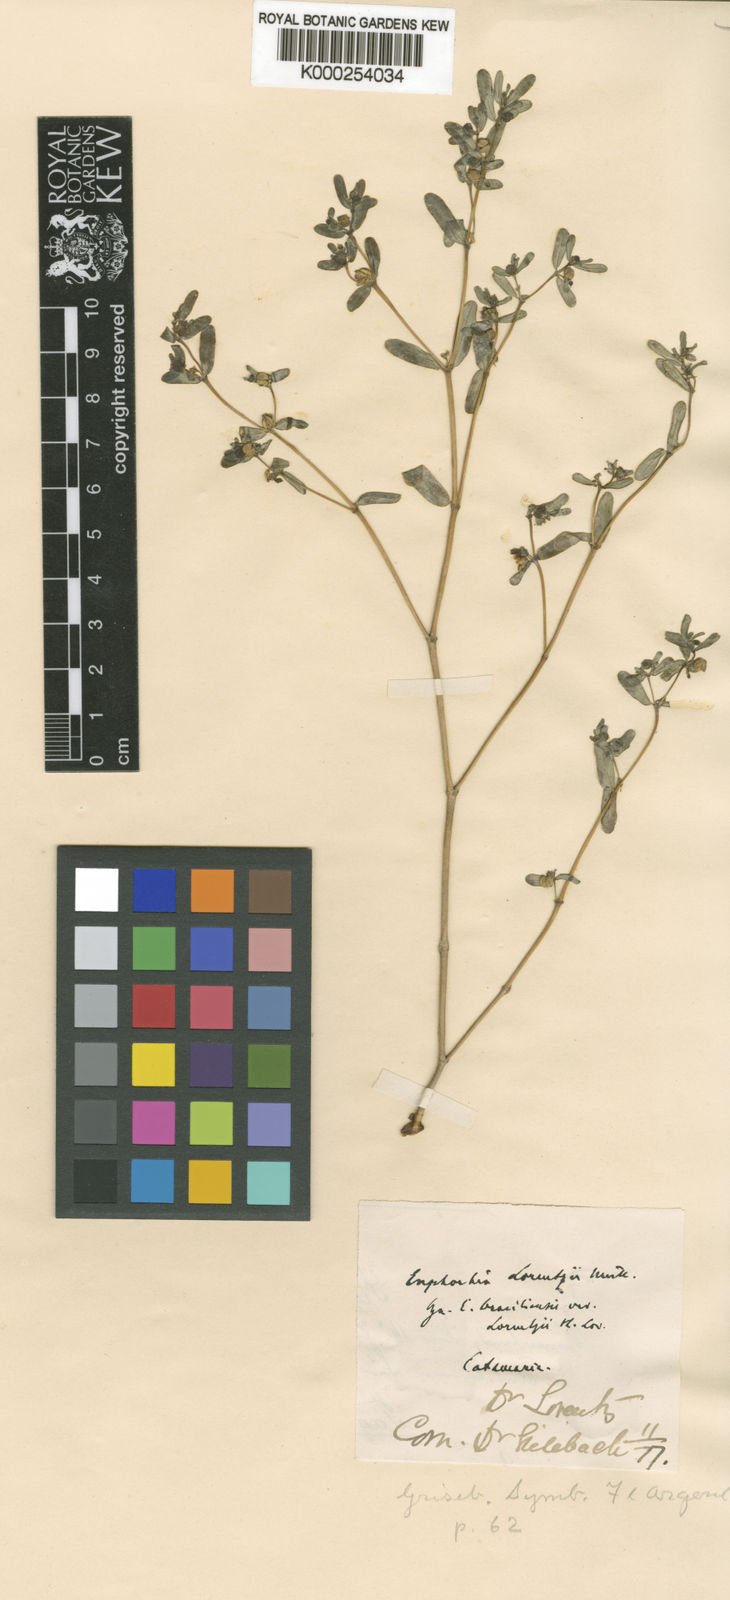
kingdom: Plantae
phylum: Tracheophyta
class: Magnoliopsida
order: Malpighiales
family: Euphorbiaceae
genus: Euphorbia
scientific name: Euphorbia
